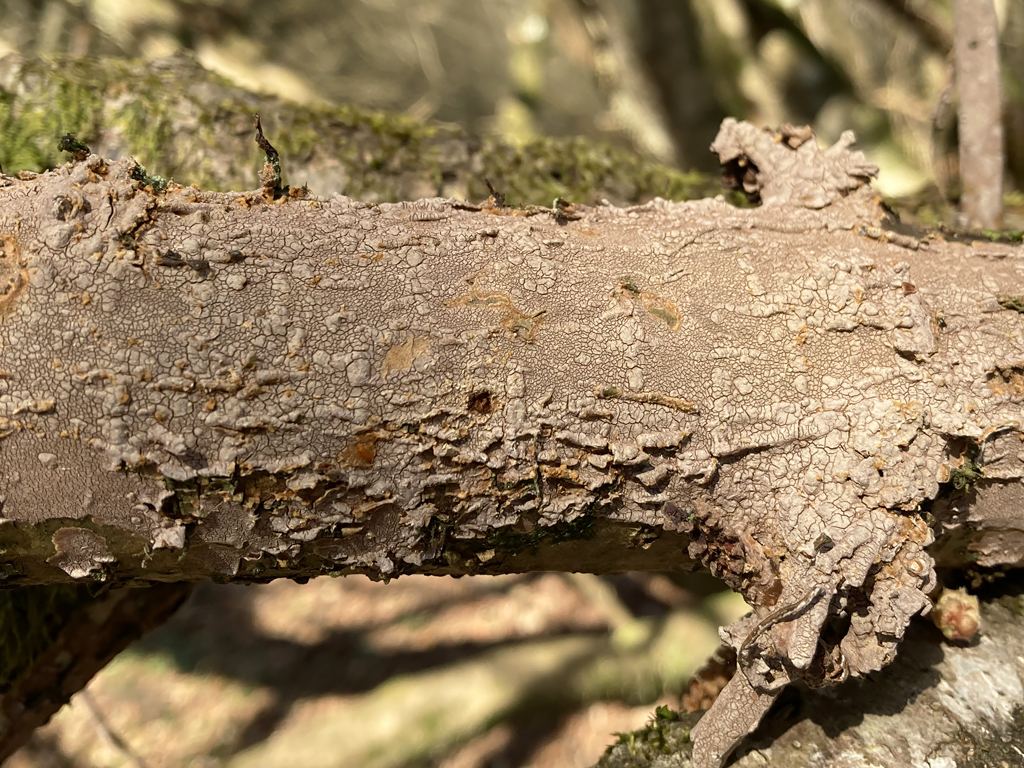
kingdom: Fungi
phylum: Basidiomycota
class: Agaricomycetes
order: Hymenochaetales
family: Hymenochaetaceae
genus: Hydnoporia
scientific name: Hydnoporia corrugata
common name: sprække-ruslædersvamp
